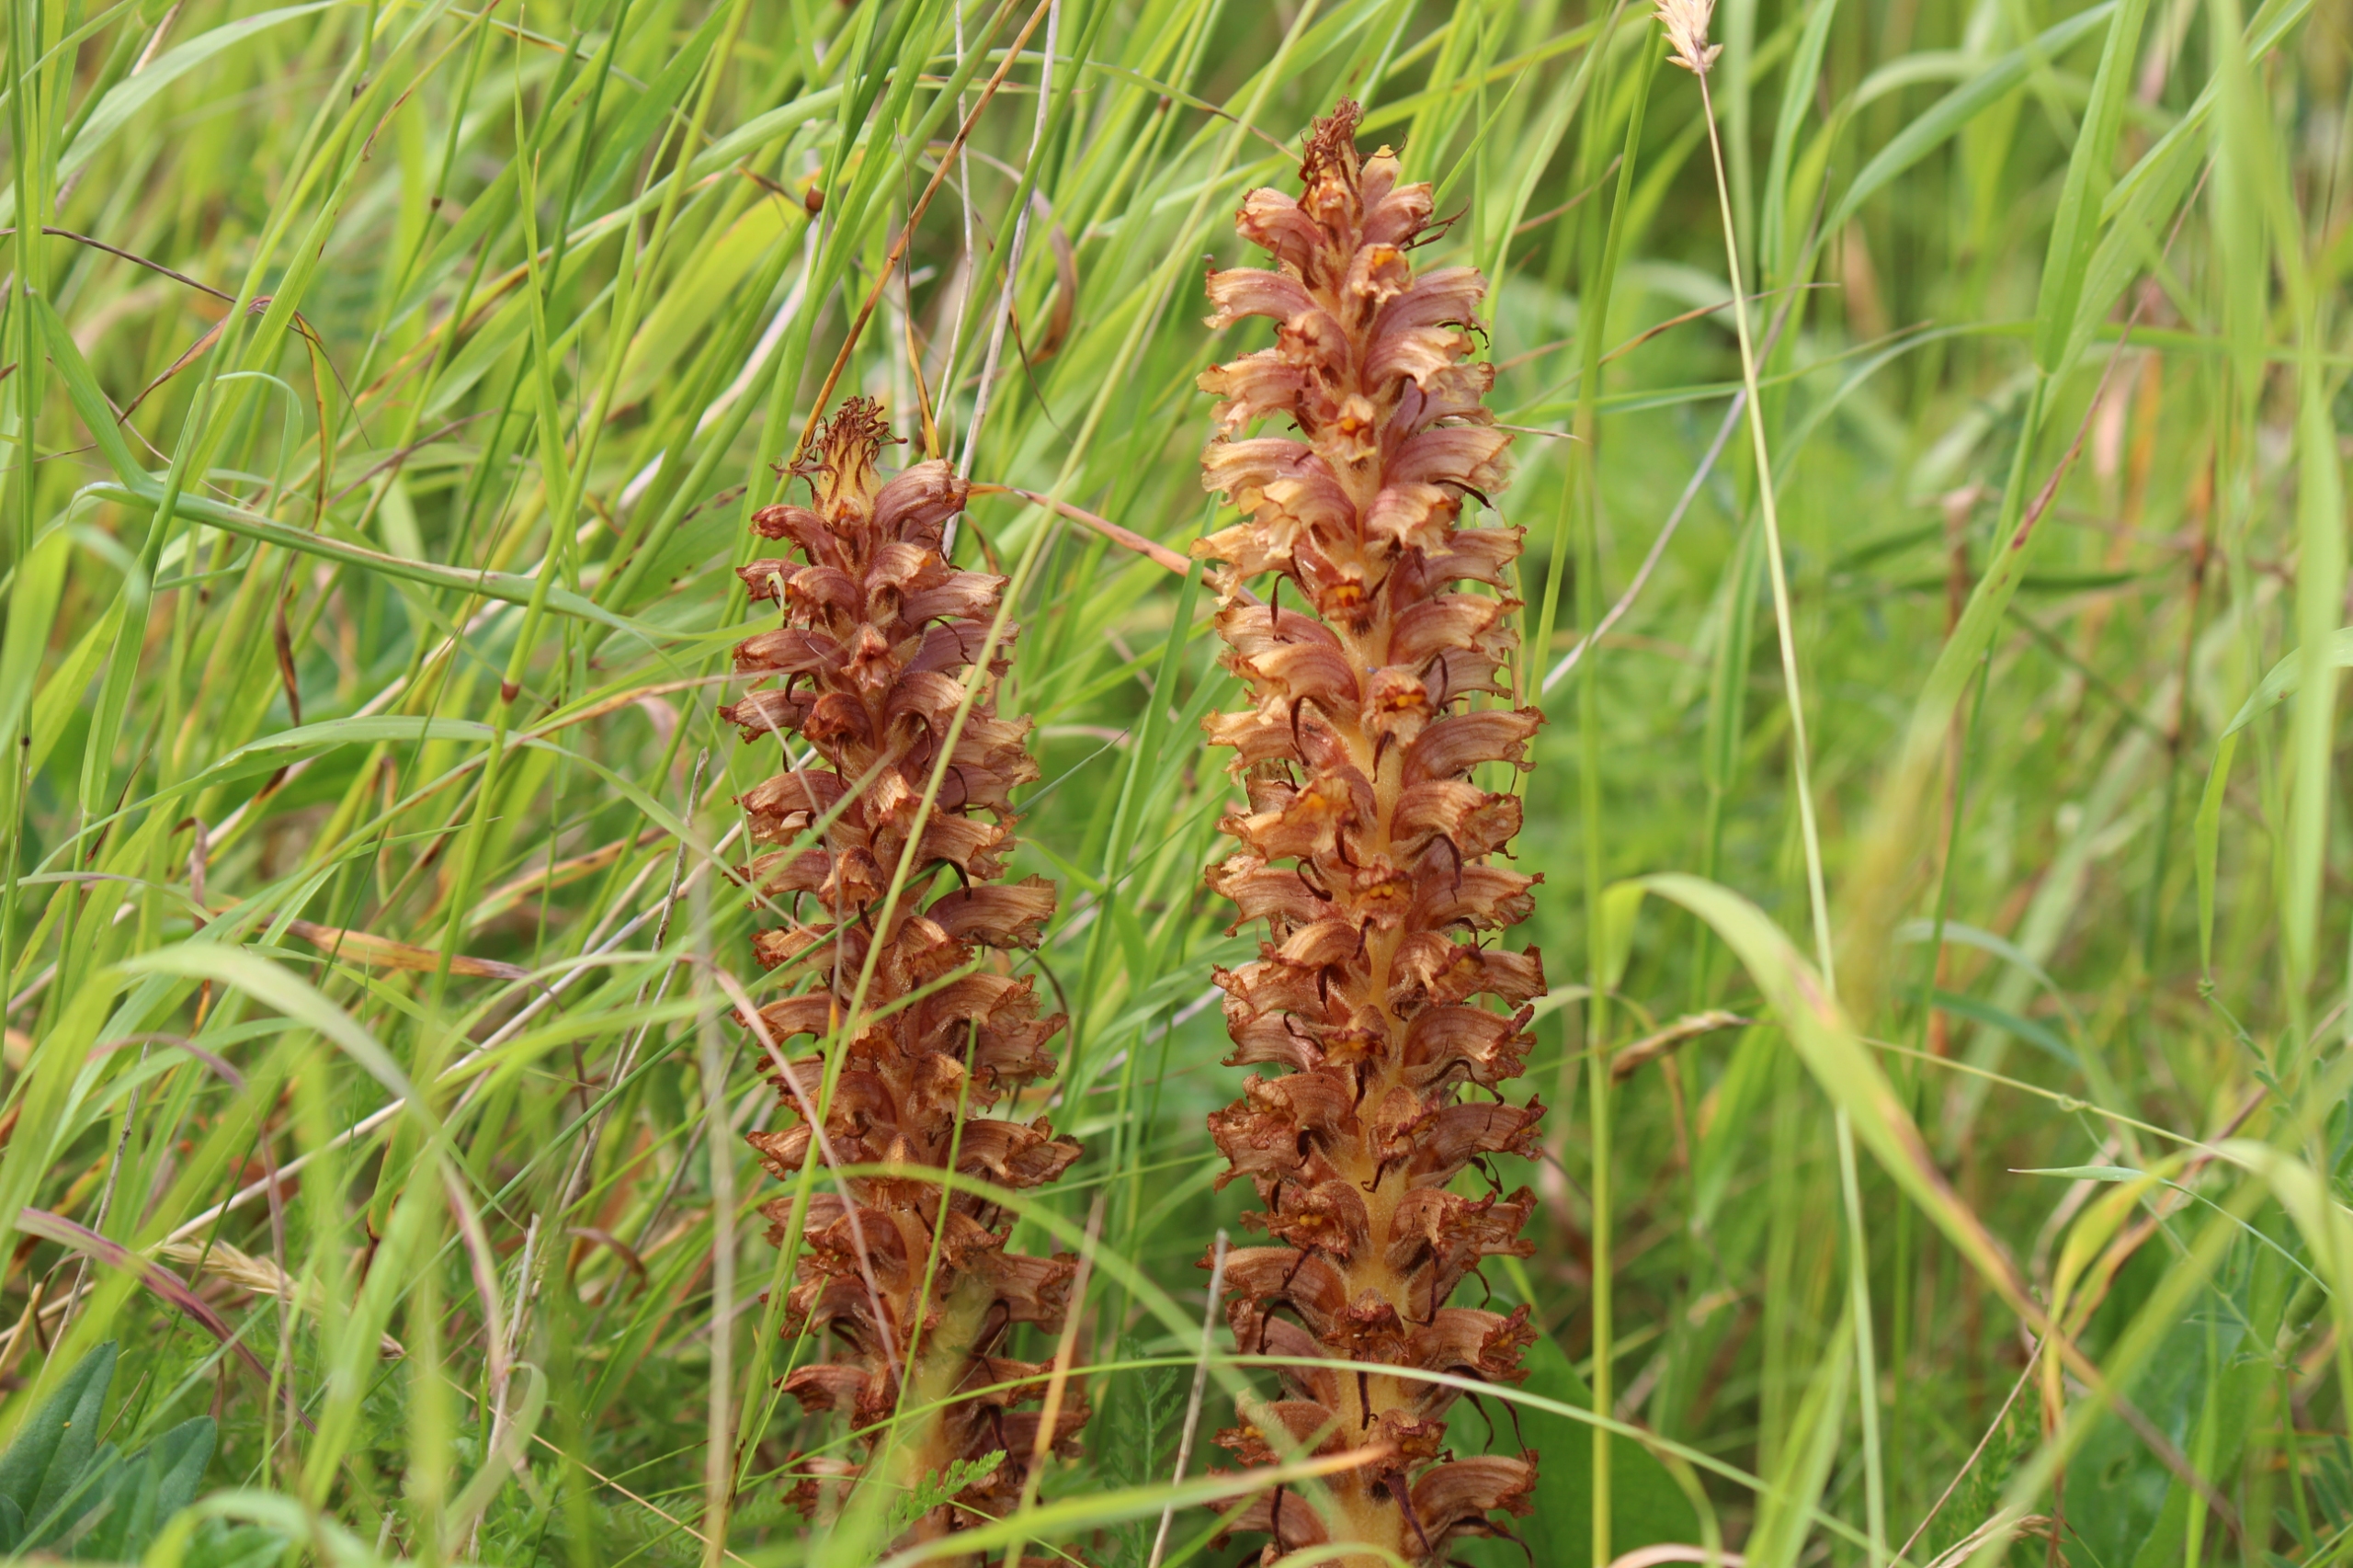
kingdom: Plantae
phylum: Tracheophyta
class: Magnoliopsida
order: Lamiales
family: Orobanchaceae
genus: Orobanche
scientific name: Orobanche elatior
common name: Stor gyvelkvæler
